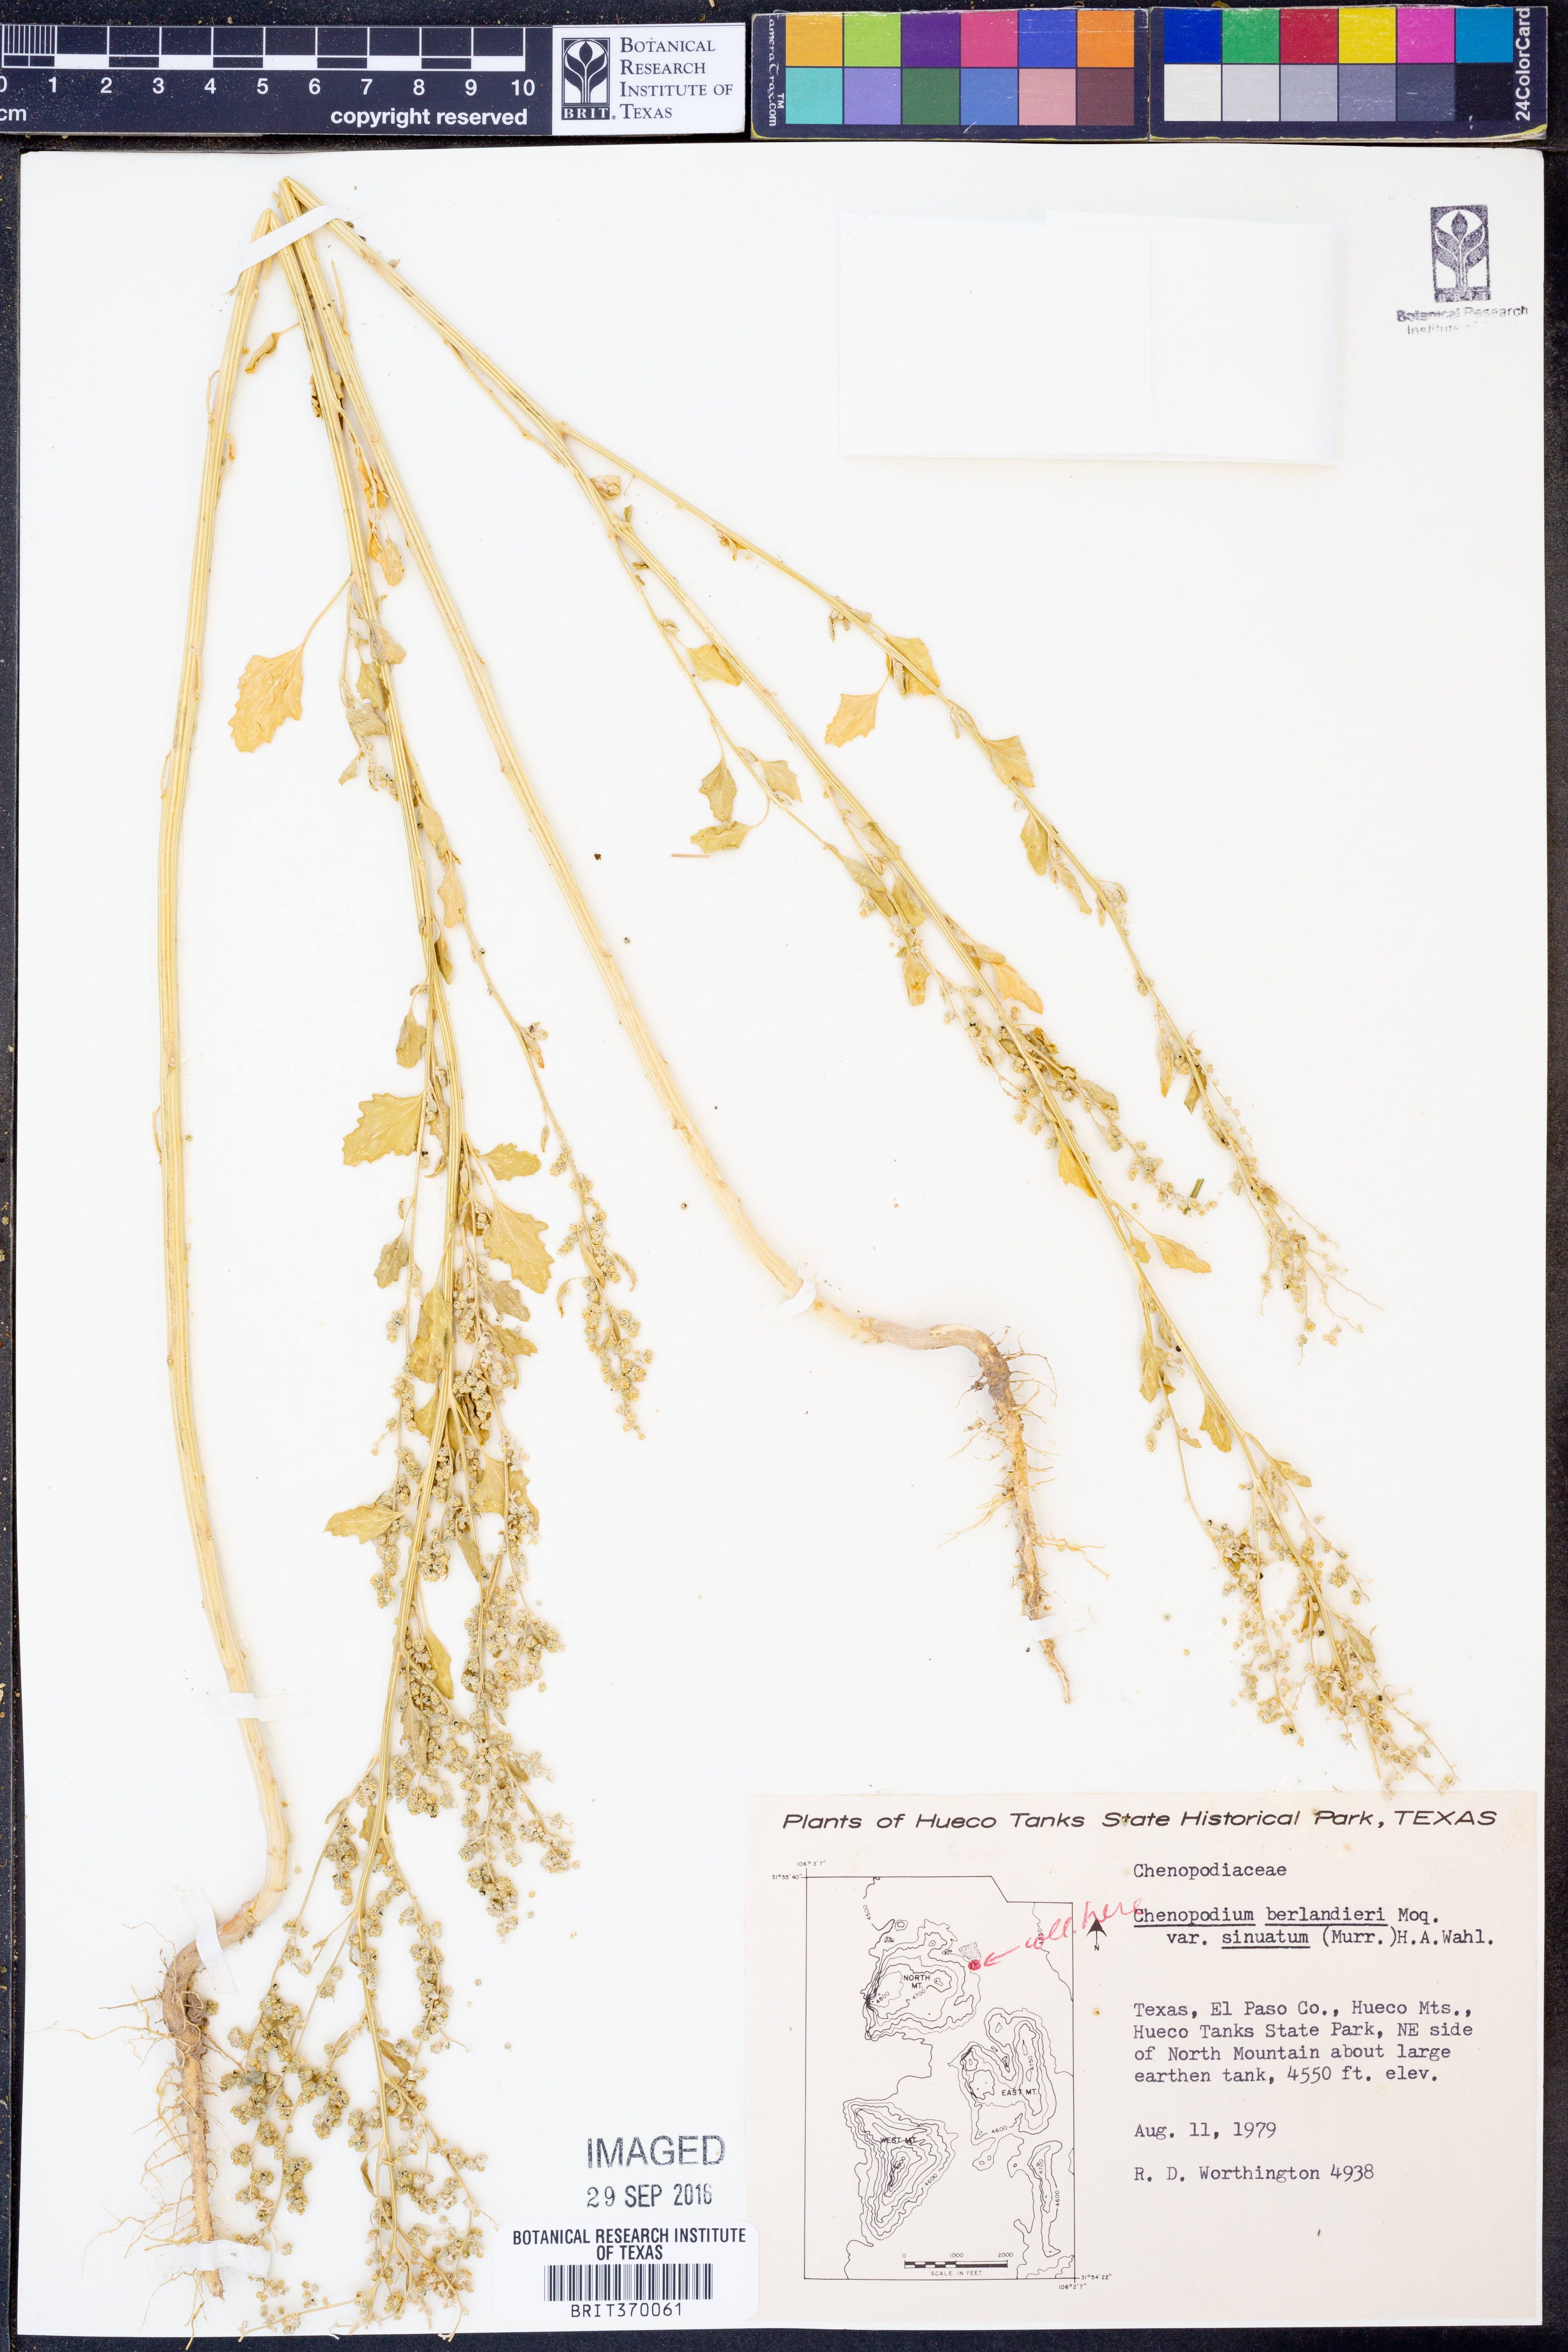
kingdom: Plantae
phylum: Tracheophyta
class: Magnoliopsida
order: Caryophyllales
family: Amaranthaceae
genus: Chenopodium
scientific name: Chenopodium berlandieri
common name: Pit-seed goosefoot
